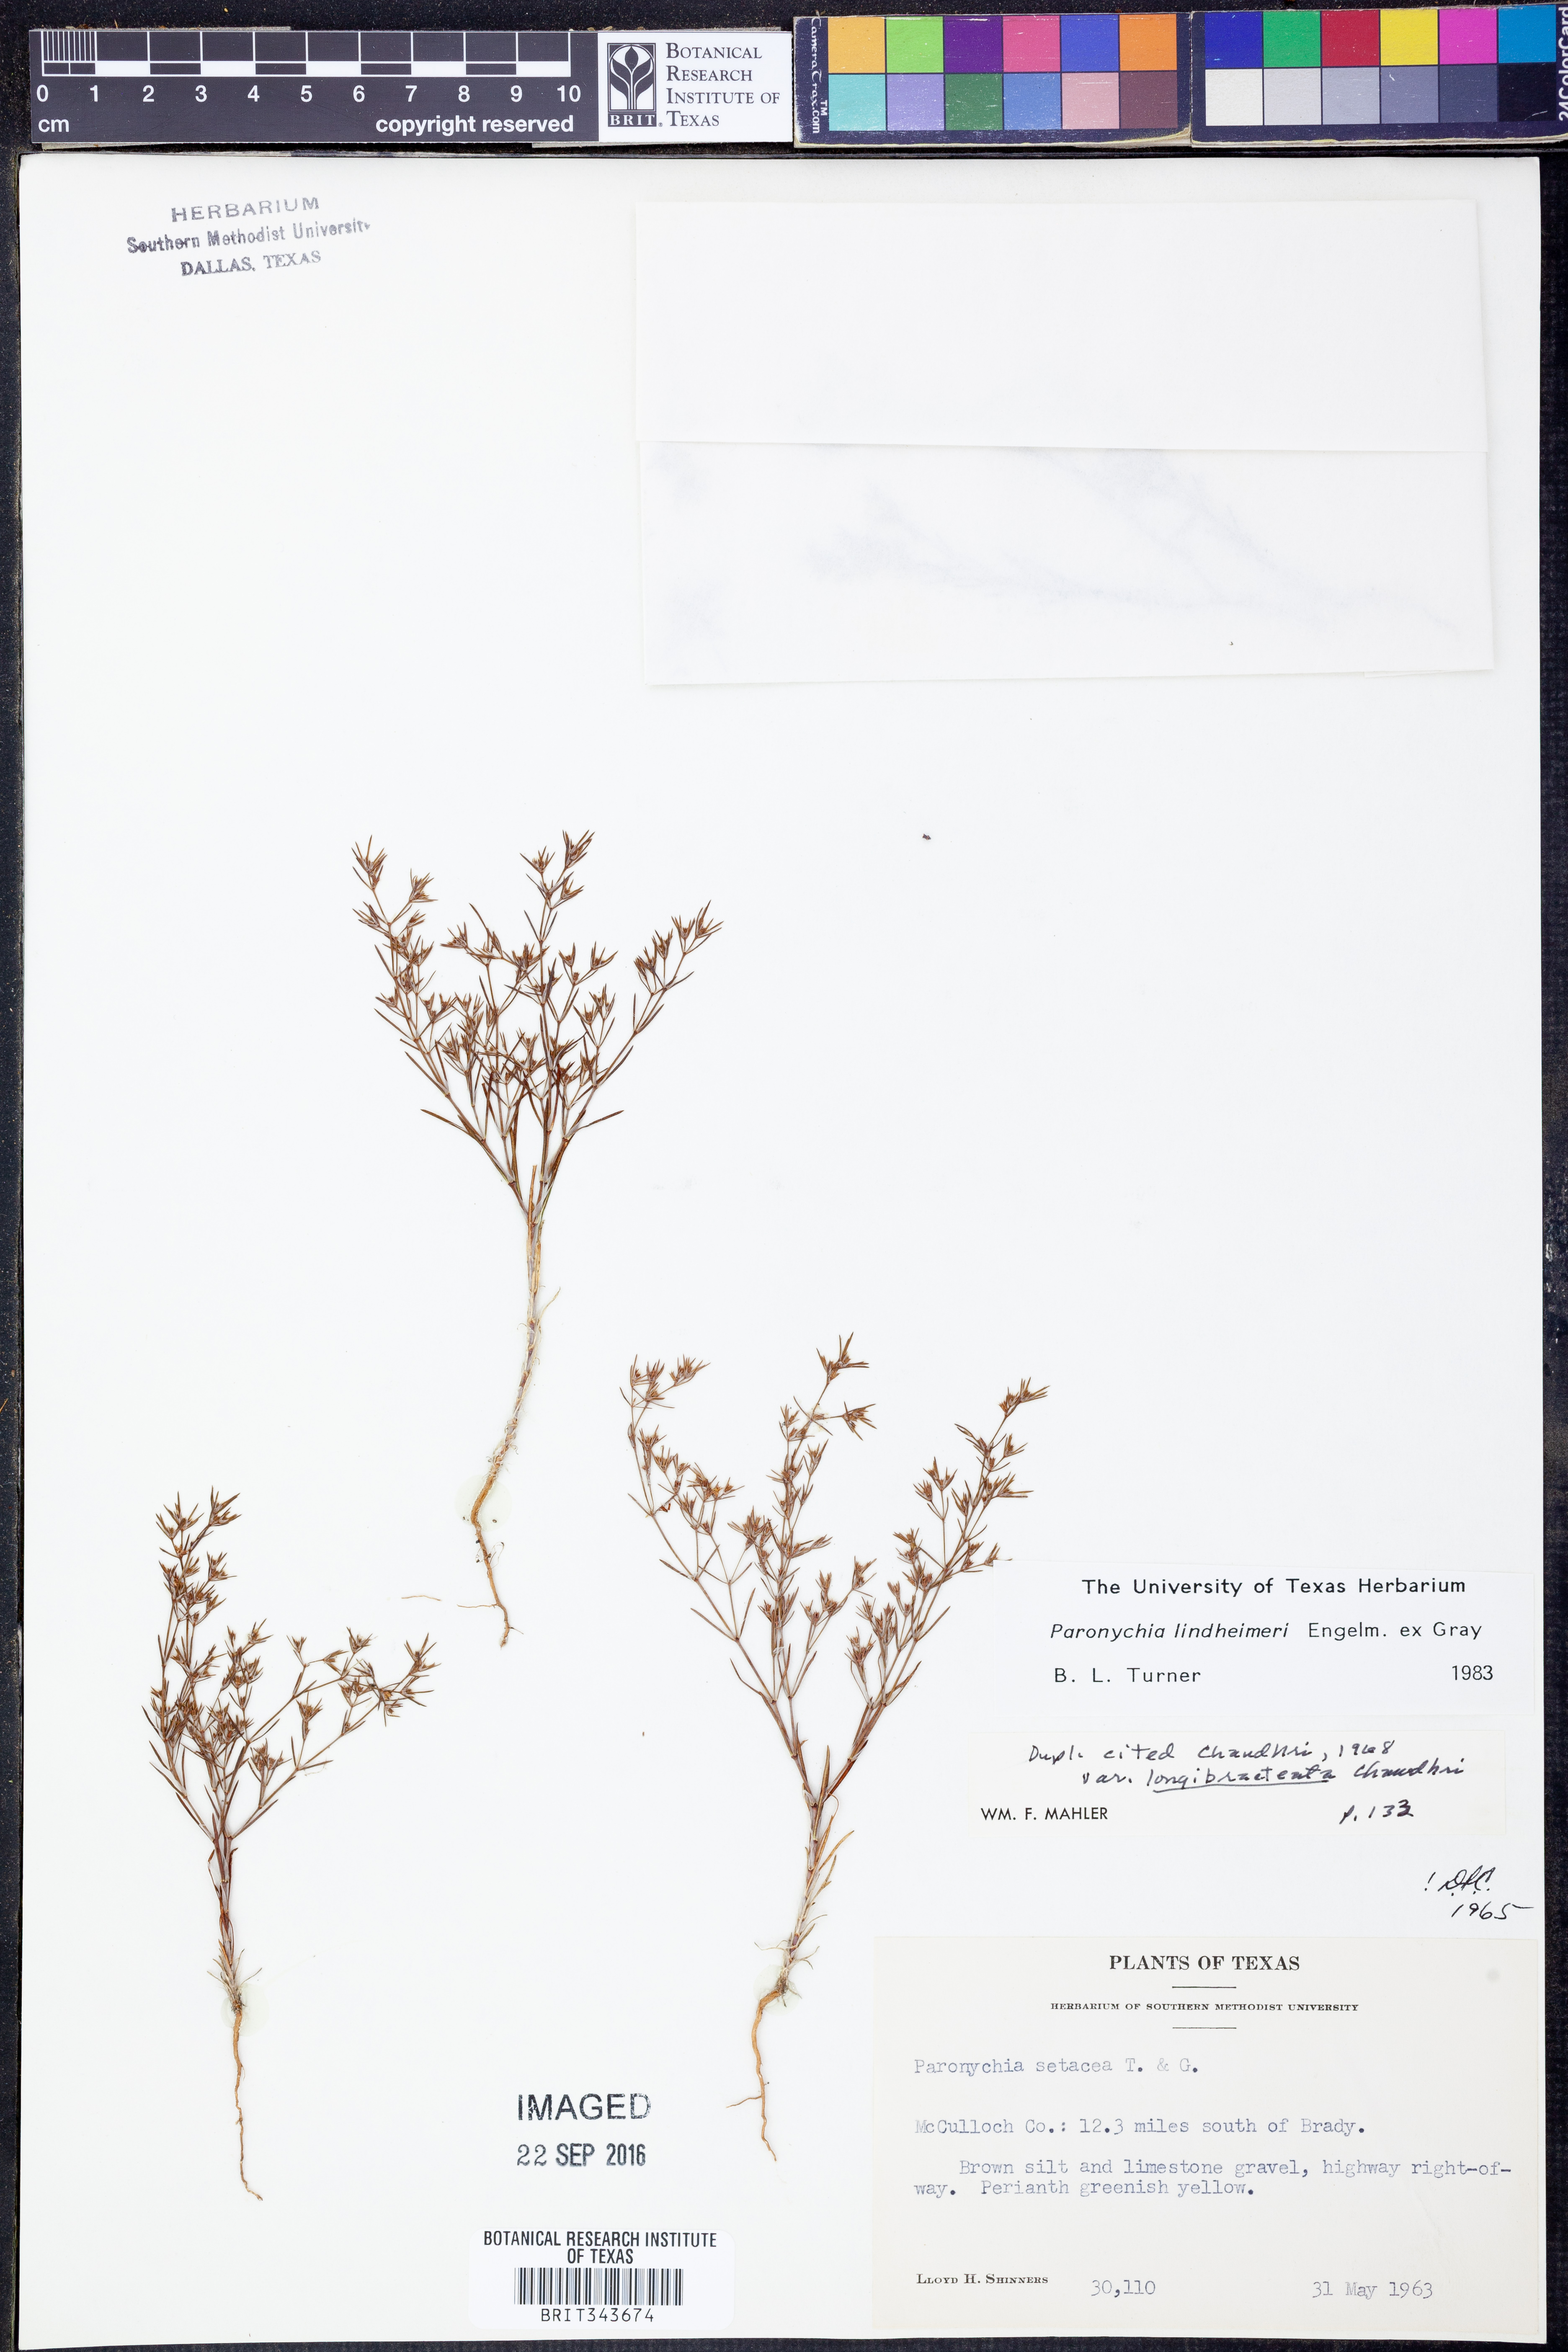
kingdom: Plantae
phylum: Tracheophyta
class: Magnoliopsida
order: Caryophyllales
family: Caryophyllaceae
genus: Paronychia
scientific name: Paronychia lindheimeri
